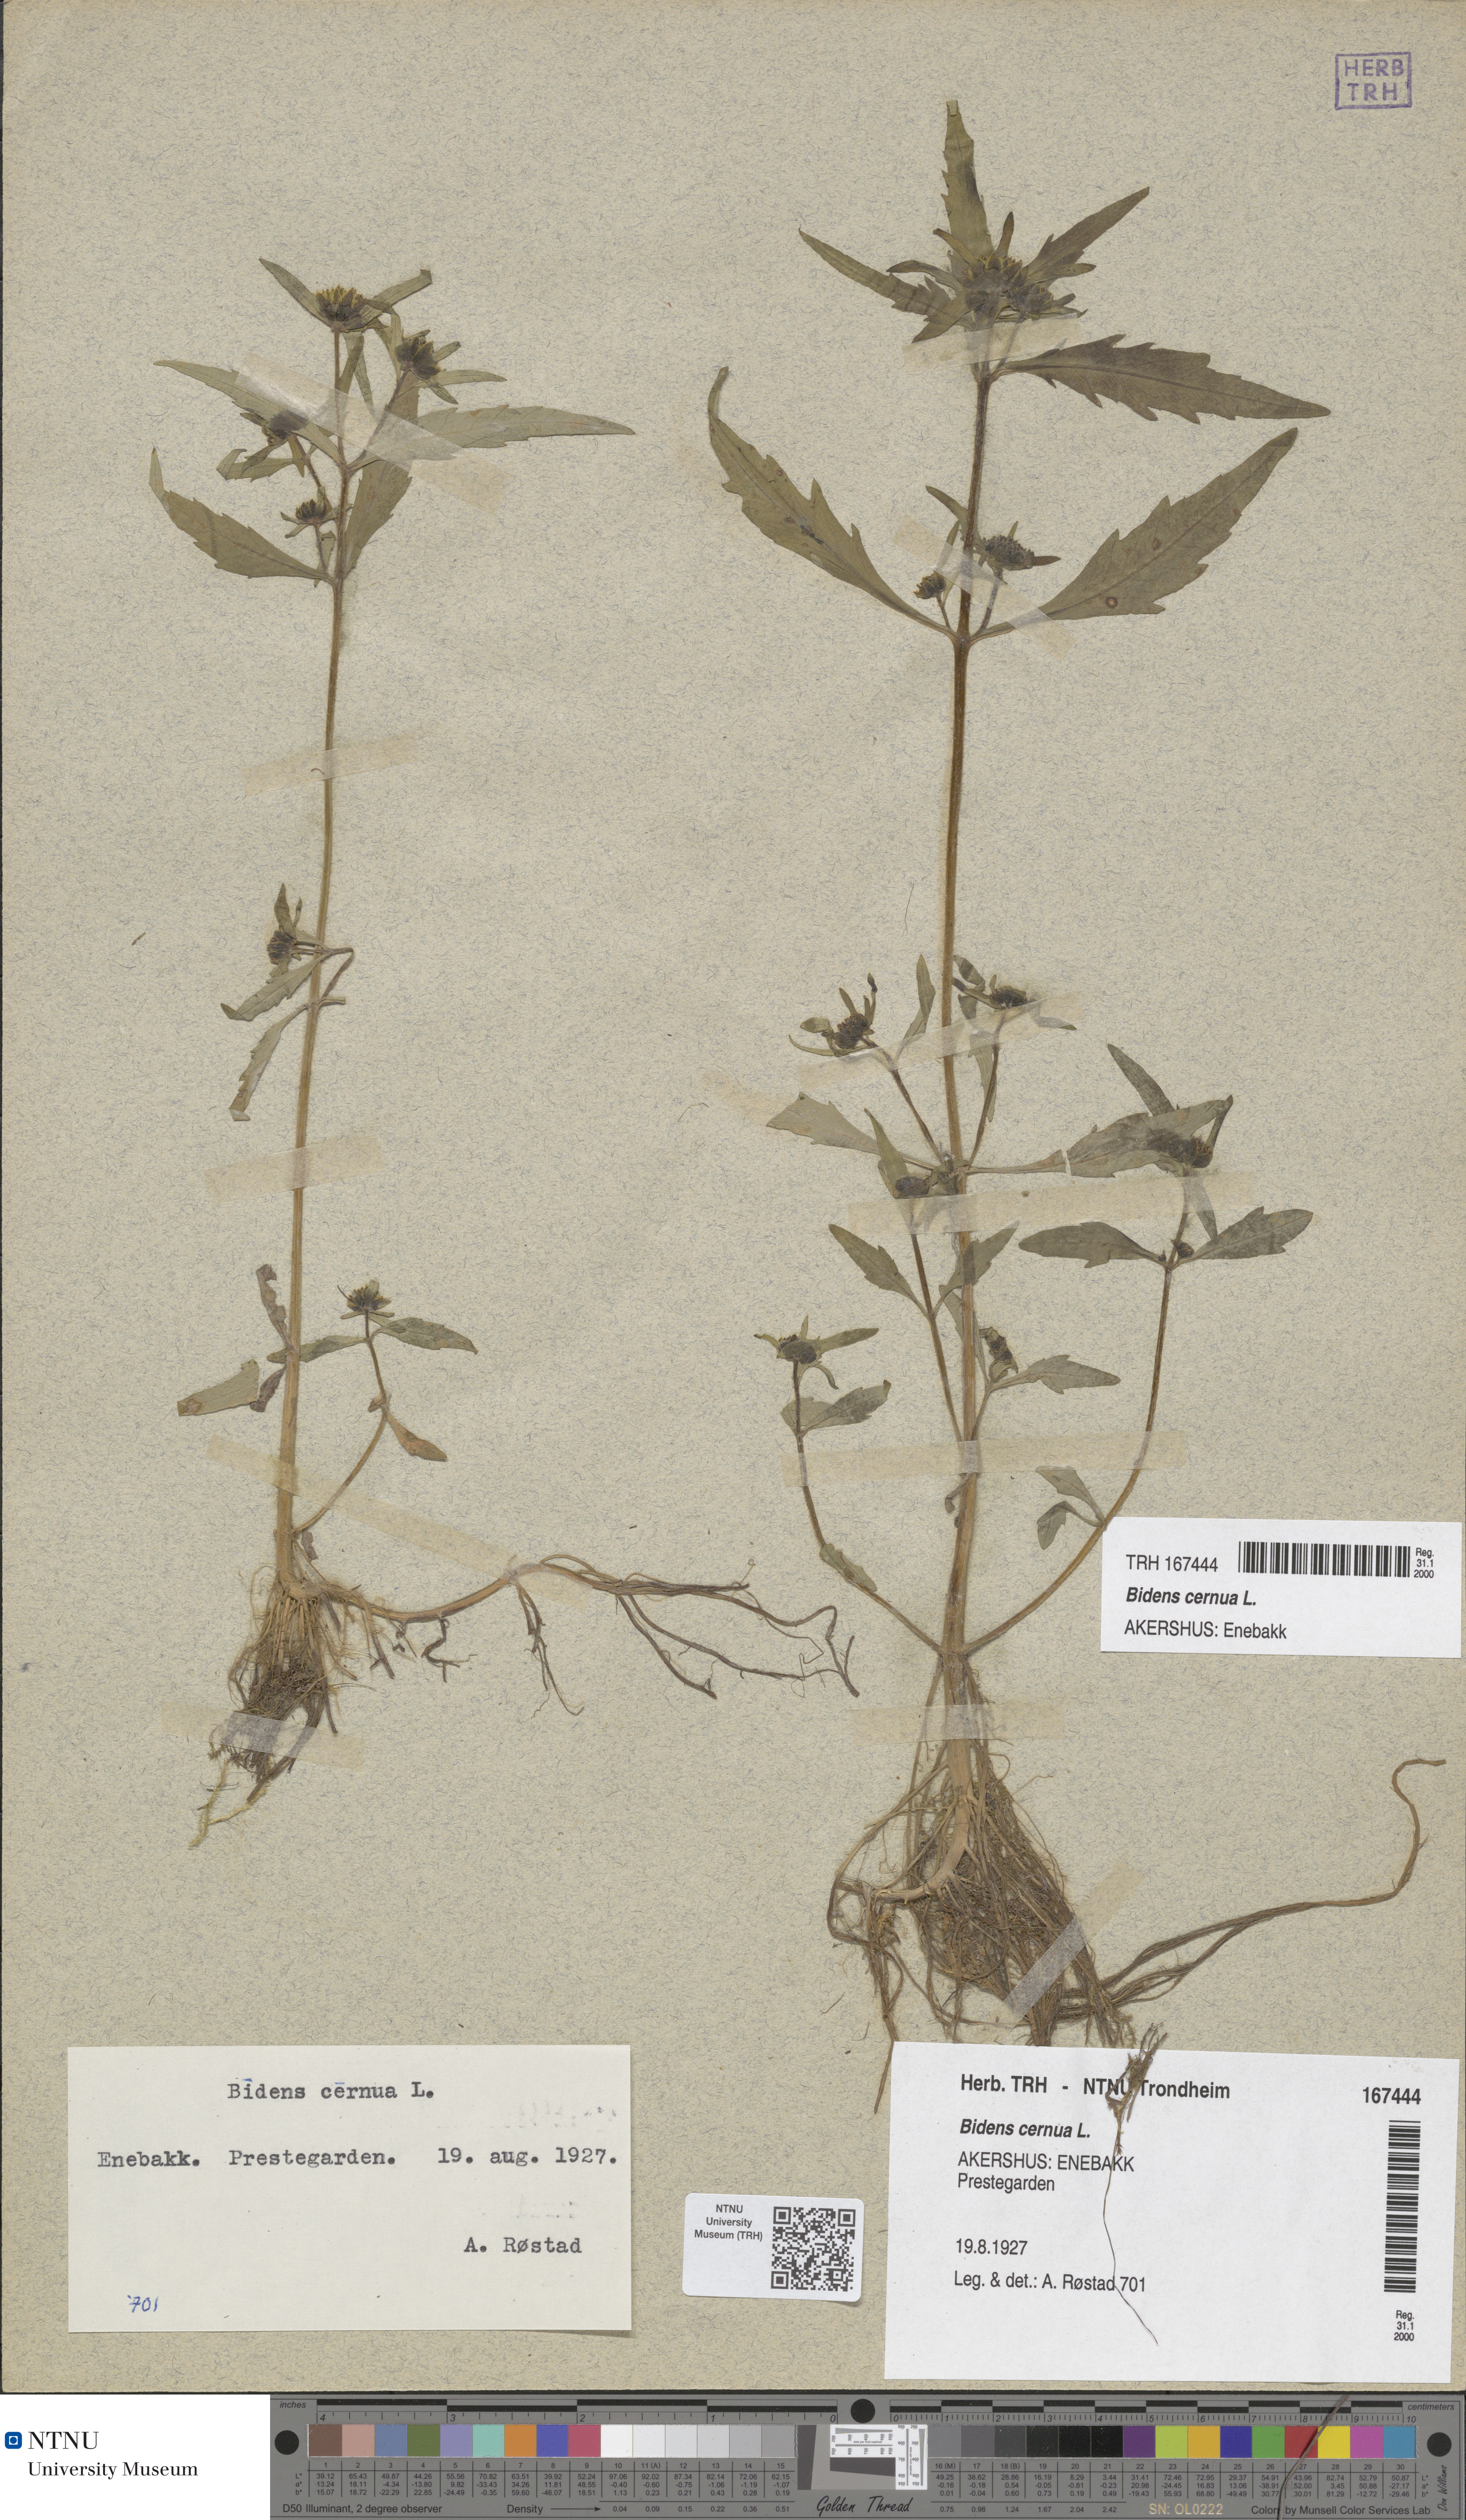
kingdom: Plantae
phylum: Tracheophyta
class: Magnoliopsida
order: Asterales
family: Asteraceae
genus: Bidens
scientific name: Bidens cernua
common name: Nodding bur-marigold
